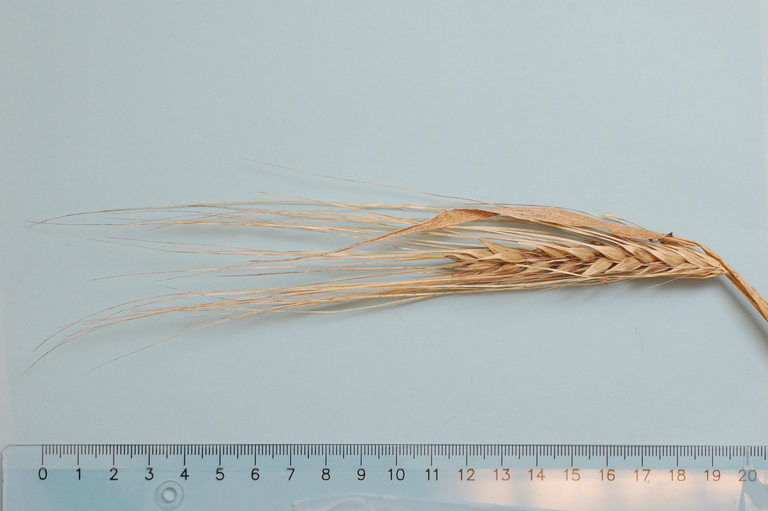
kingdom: Plantae
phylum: Tracheophyta
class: Liliopsida
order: Poales
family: Poaceae
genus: Hordeum
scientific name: Hordeum vulgare
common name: Common barley
